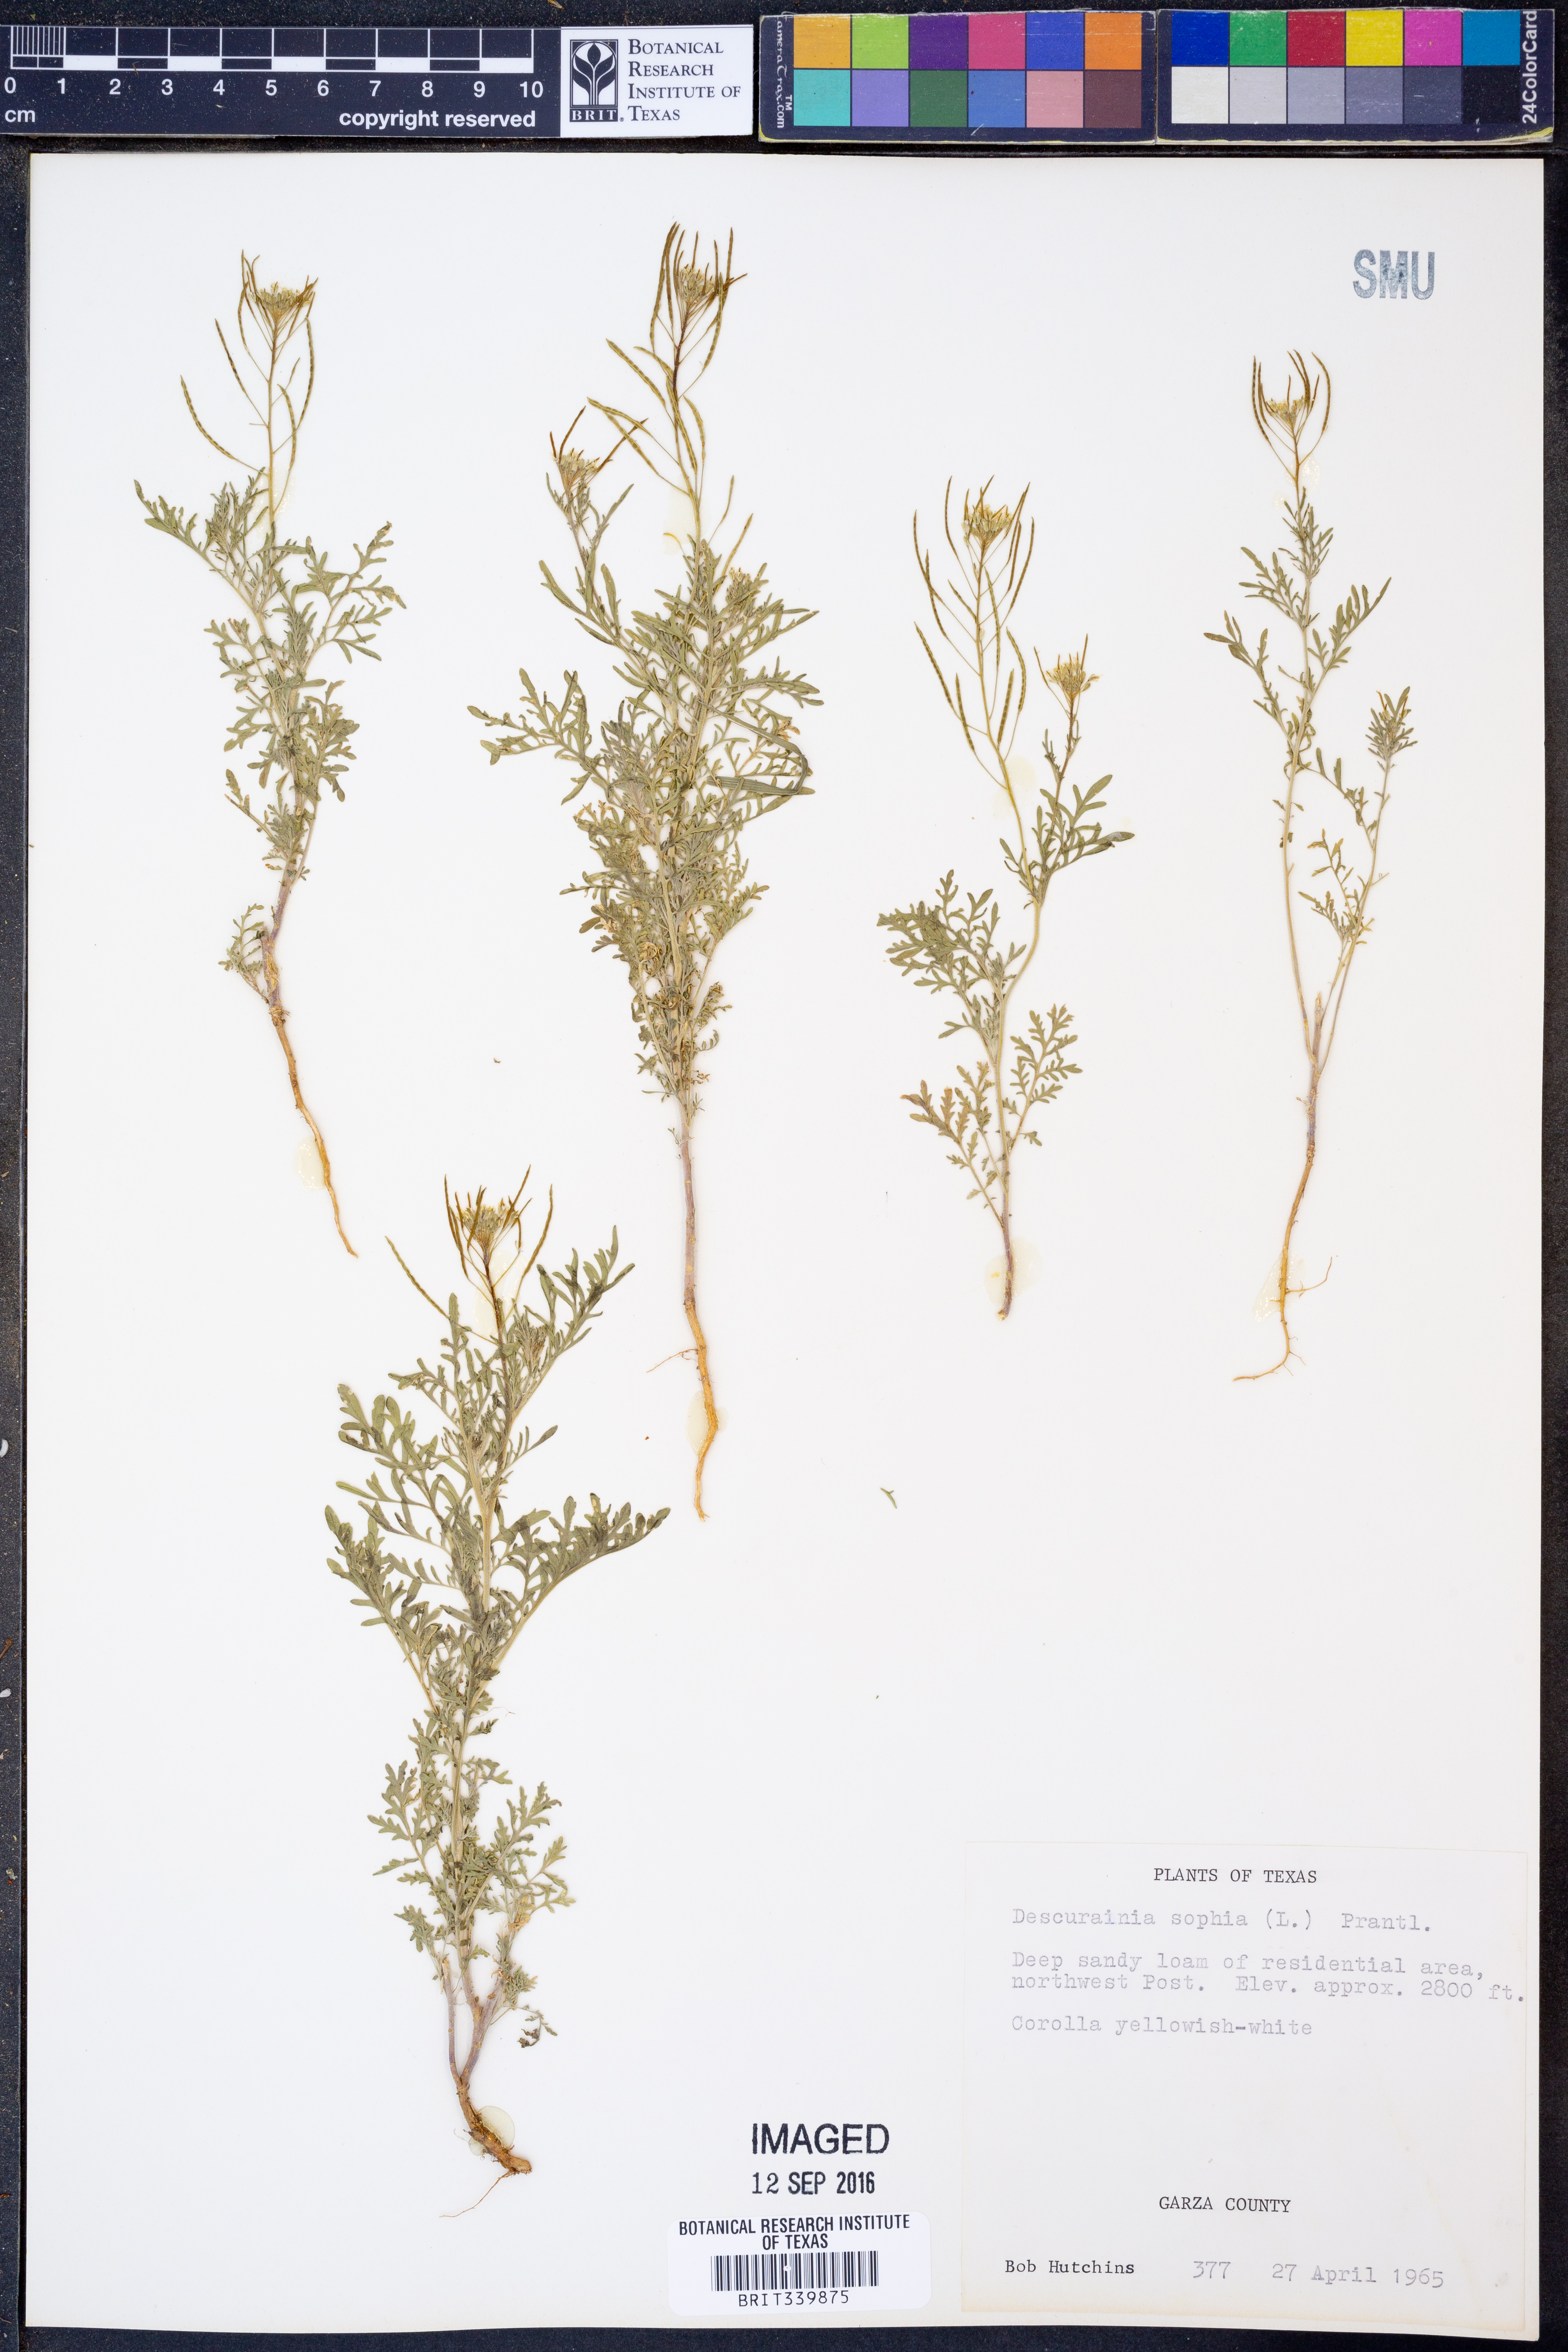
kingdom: Plantae
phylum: Tracheophyta
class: Magnoliopsida
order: Brassicales
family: Brassicaceae
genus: Descurainia
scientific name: Descurainia sophia
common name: Flixweed
